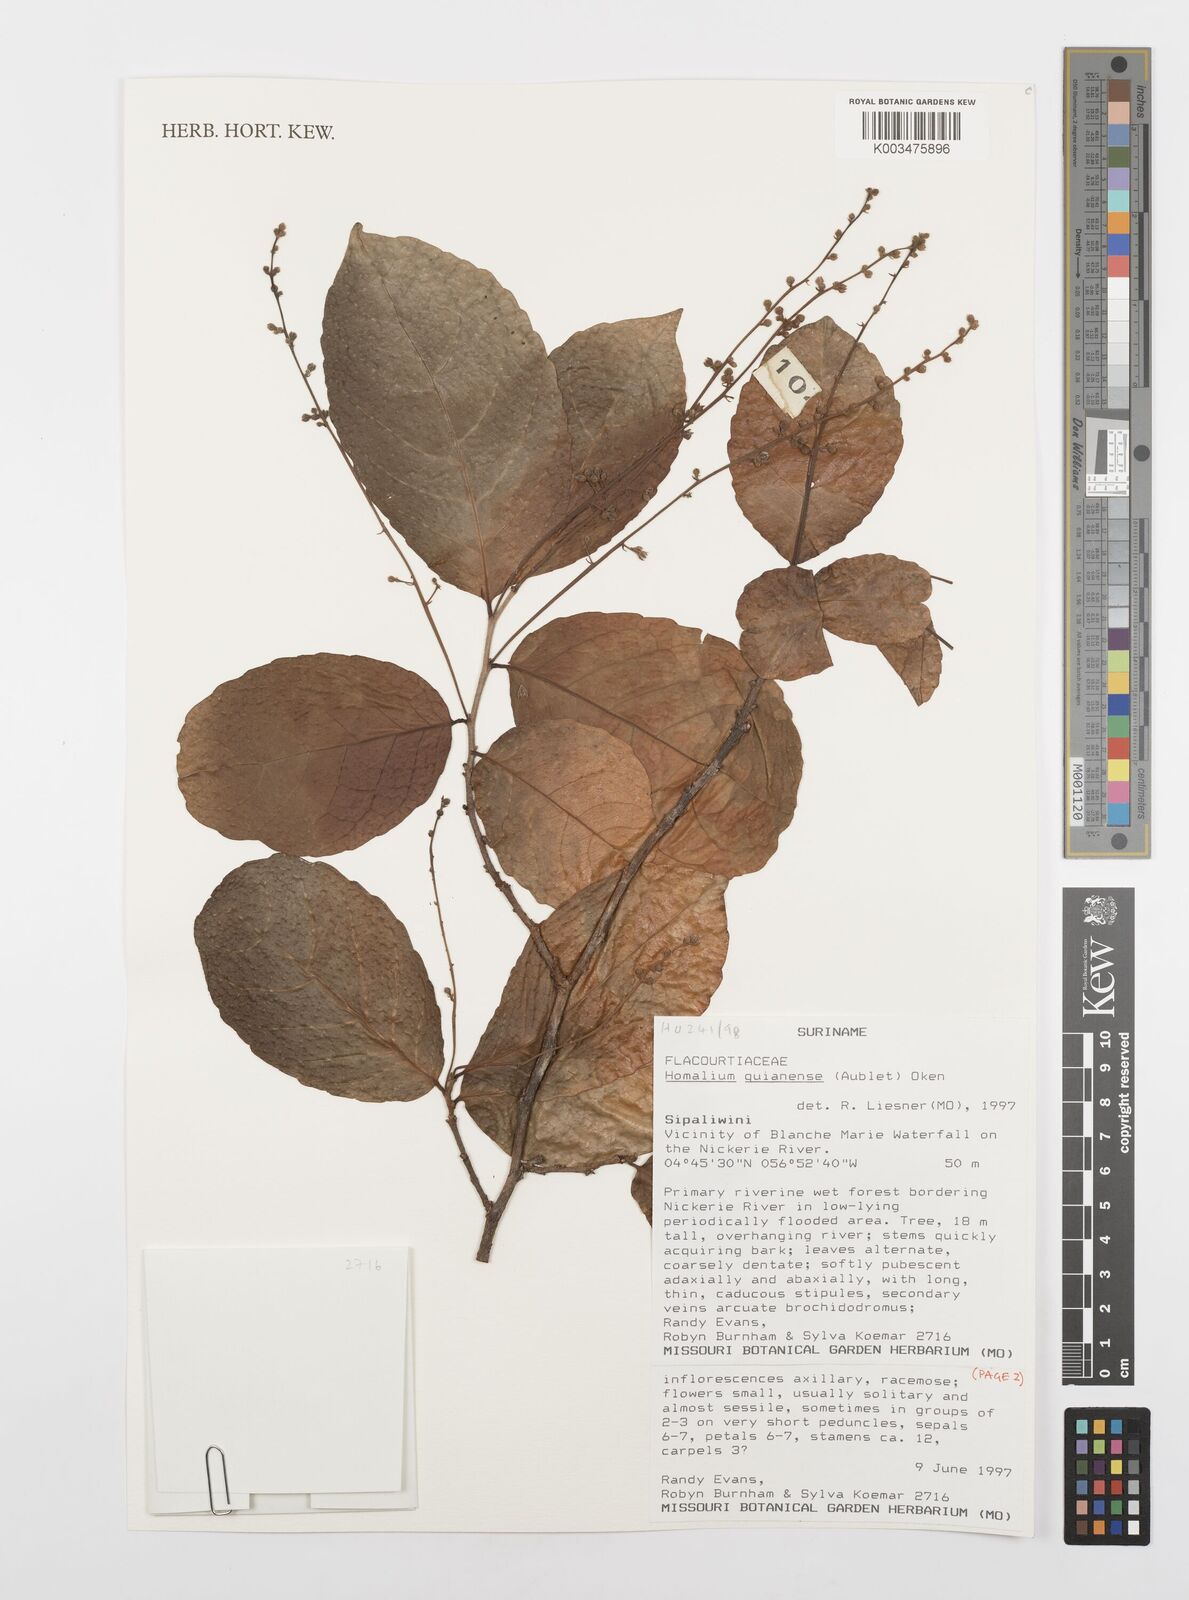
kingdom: Plantae
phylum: Tracheophyta
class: Magnoliopsida
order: Malpighiales
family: Salicaceae
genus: Homalium
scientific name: Homalium guianense
